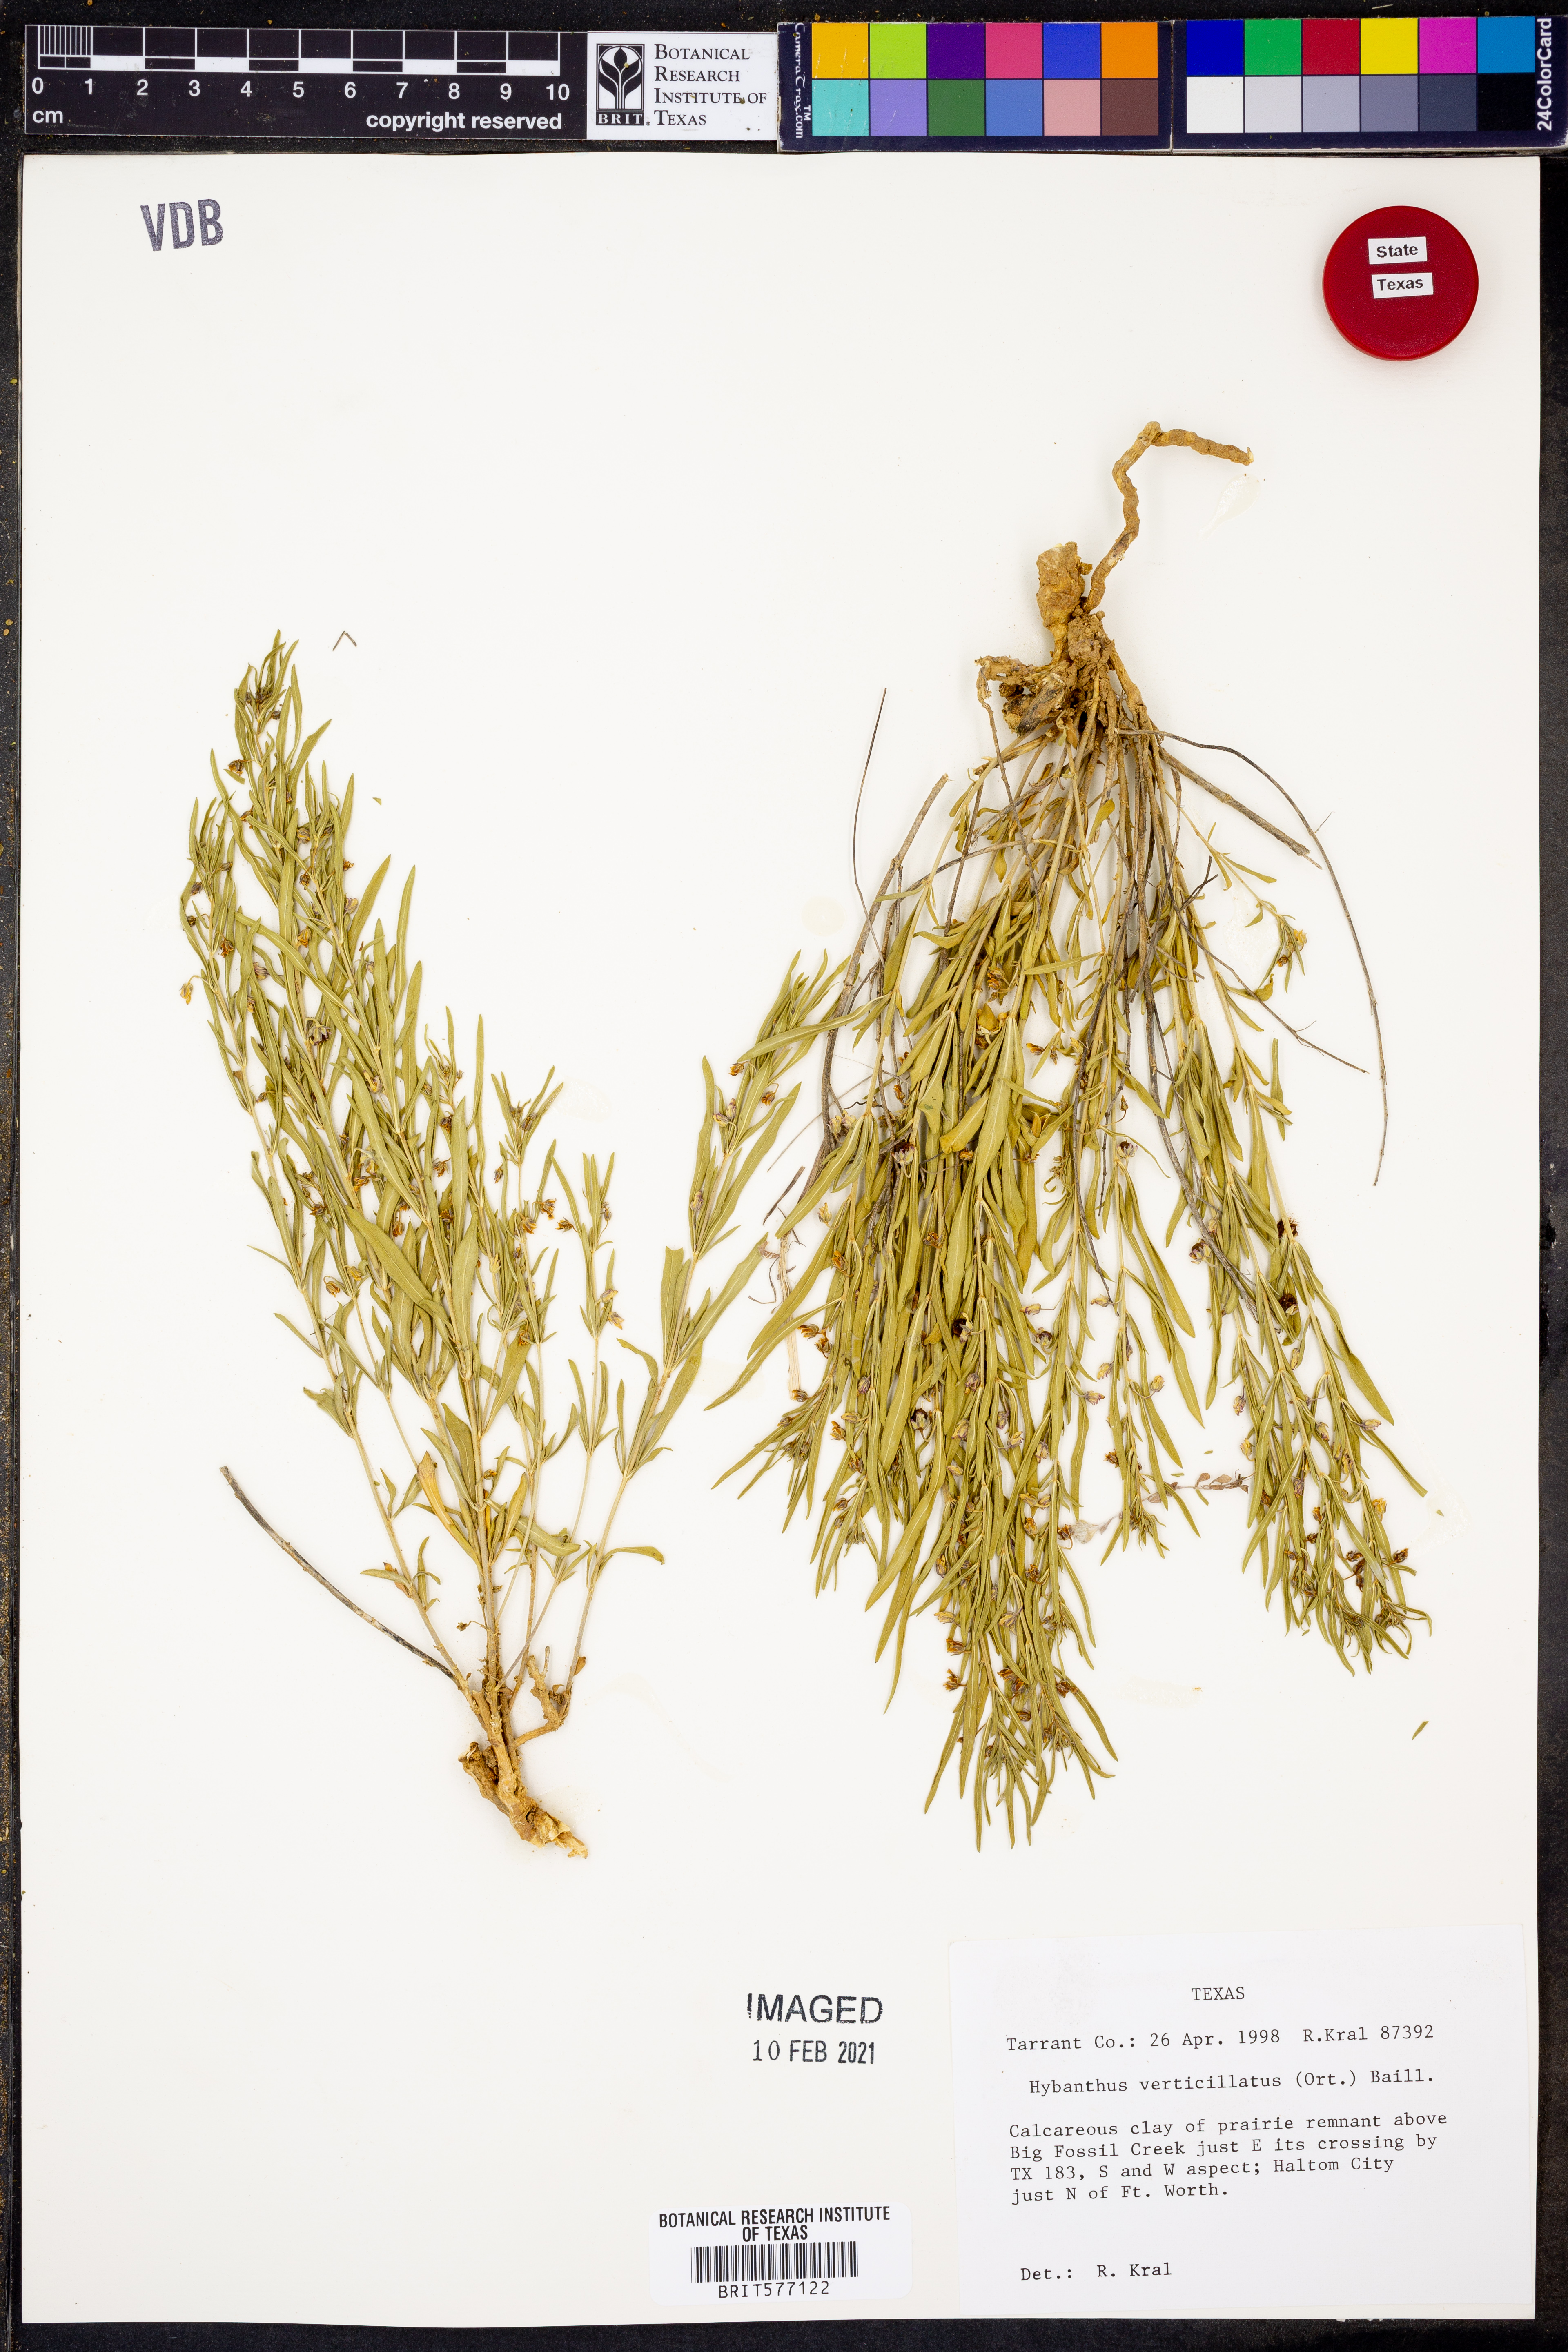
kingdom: Plantae
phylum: Tracheophyta
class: Magnoliopsida
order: Malpighiales
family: Violaceae
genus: Pombalia
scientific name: Pombalia verticillata
